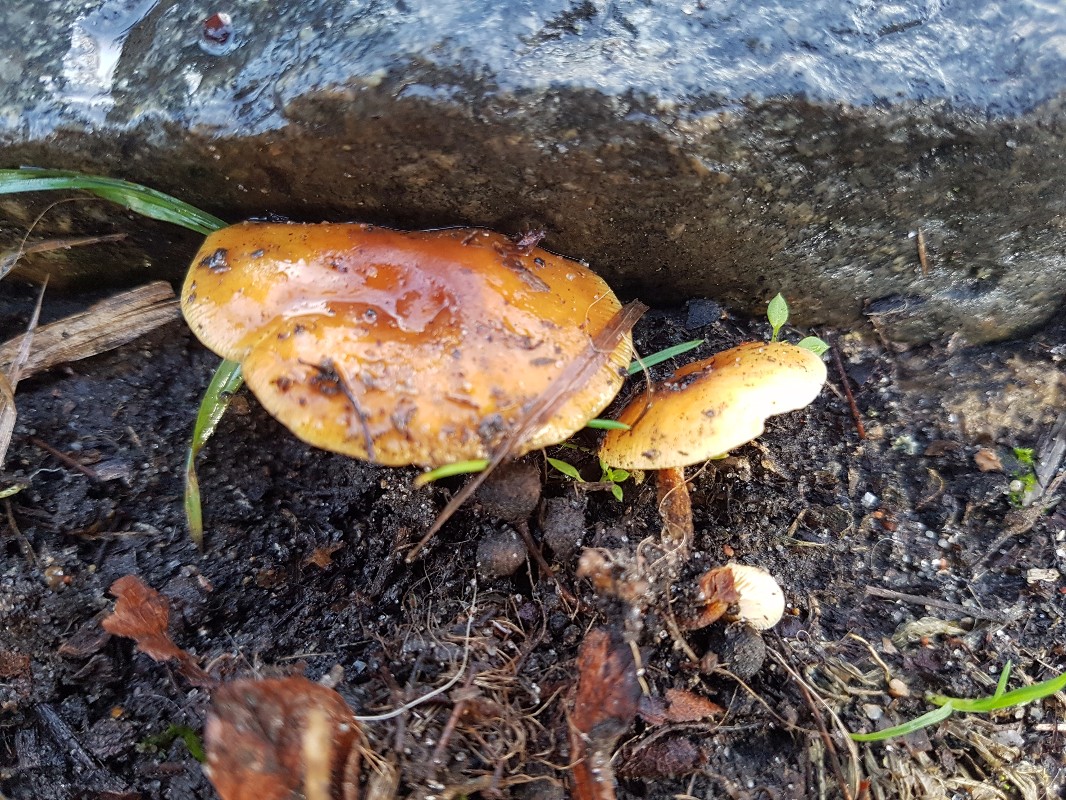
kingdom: Fungi
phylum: Basidiomycota
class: Agaricomycetes
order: Agaricales
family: Physalacriaceae
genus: Flammulina
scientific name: Flammulina velutipes
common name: gul fløjlsfod
